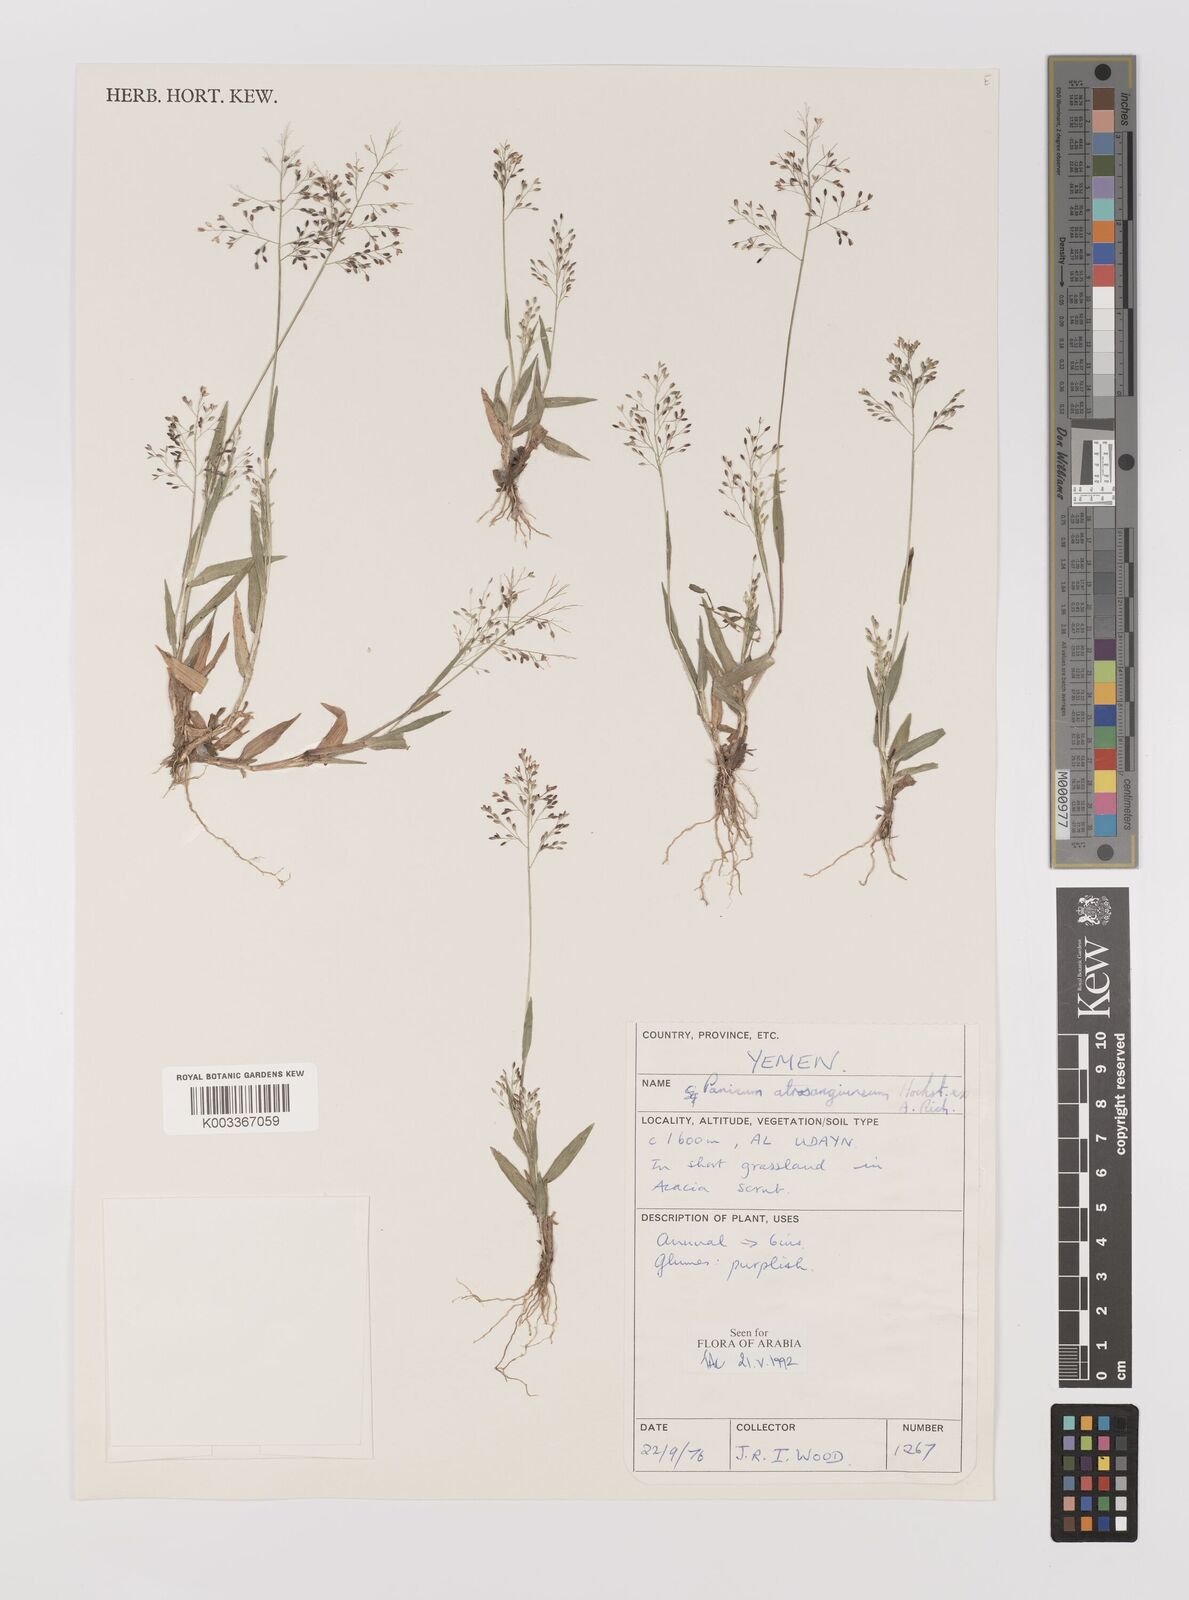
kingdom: Plantae
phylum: Tracheophyta
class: Liliopsida
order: Poales
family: Poaceae
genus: Panicum
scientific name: Panicum atrosanguineum
